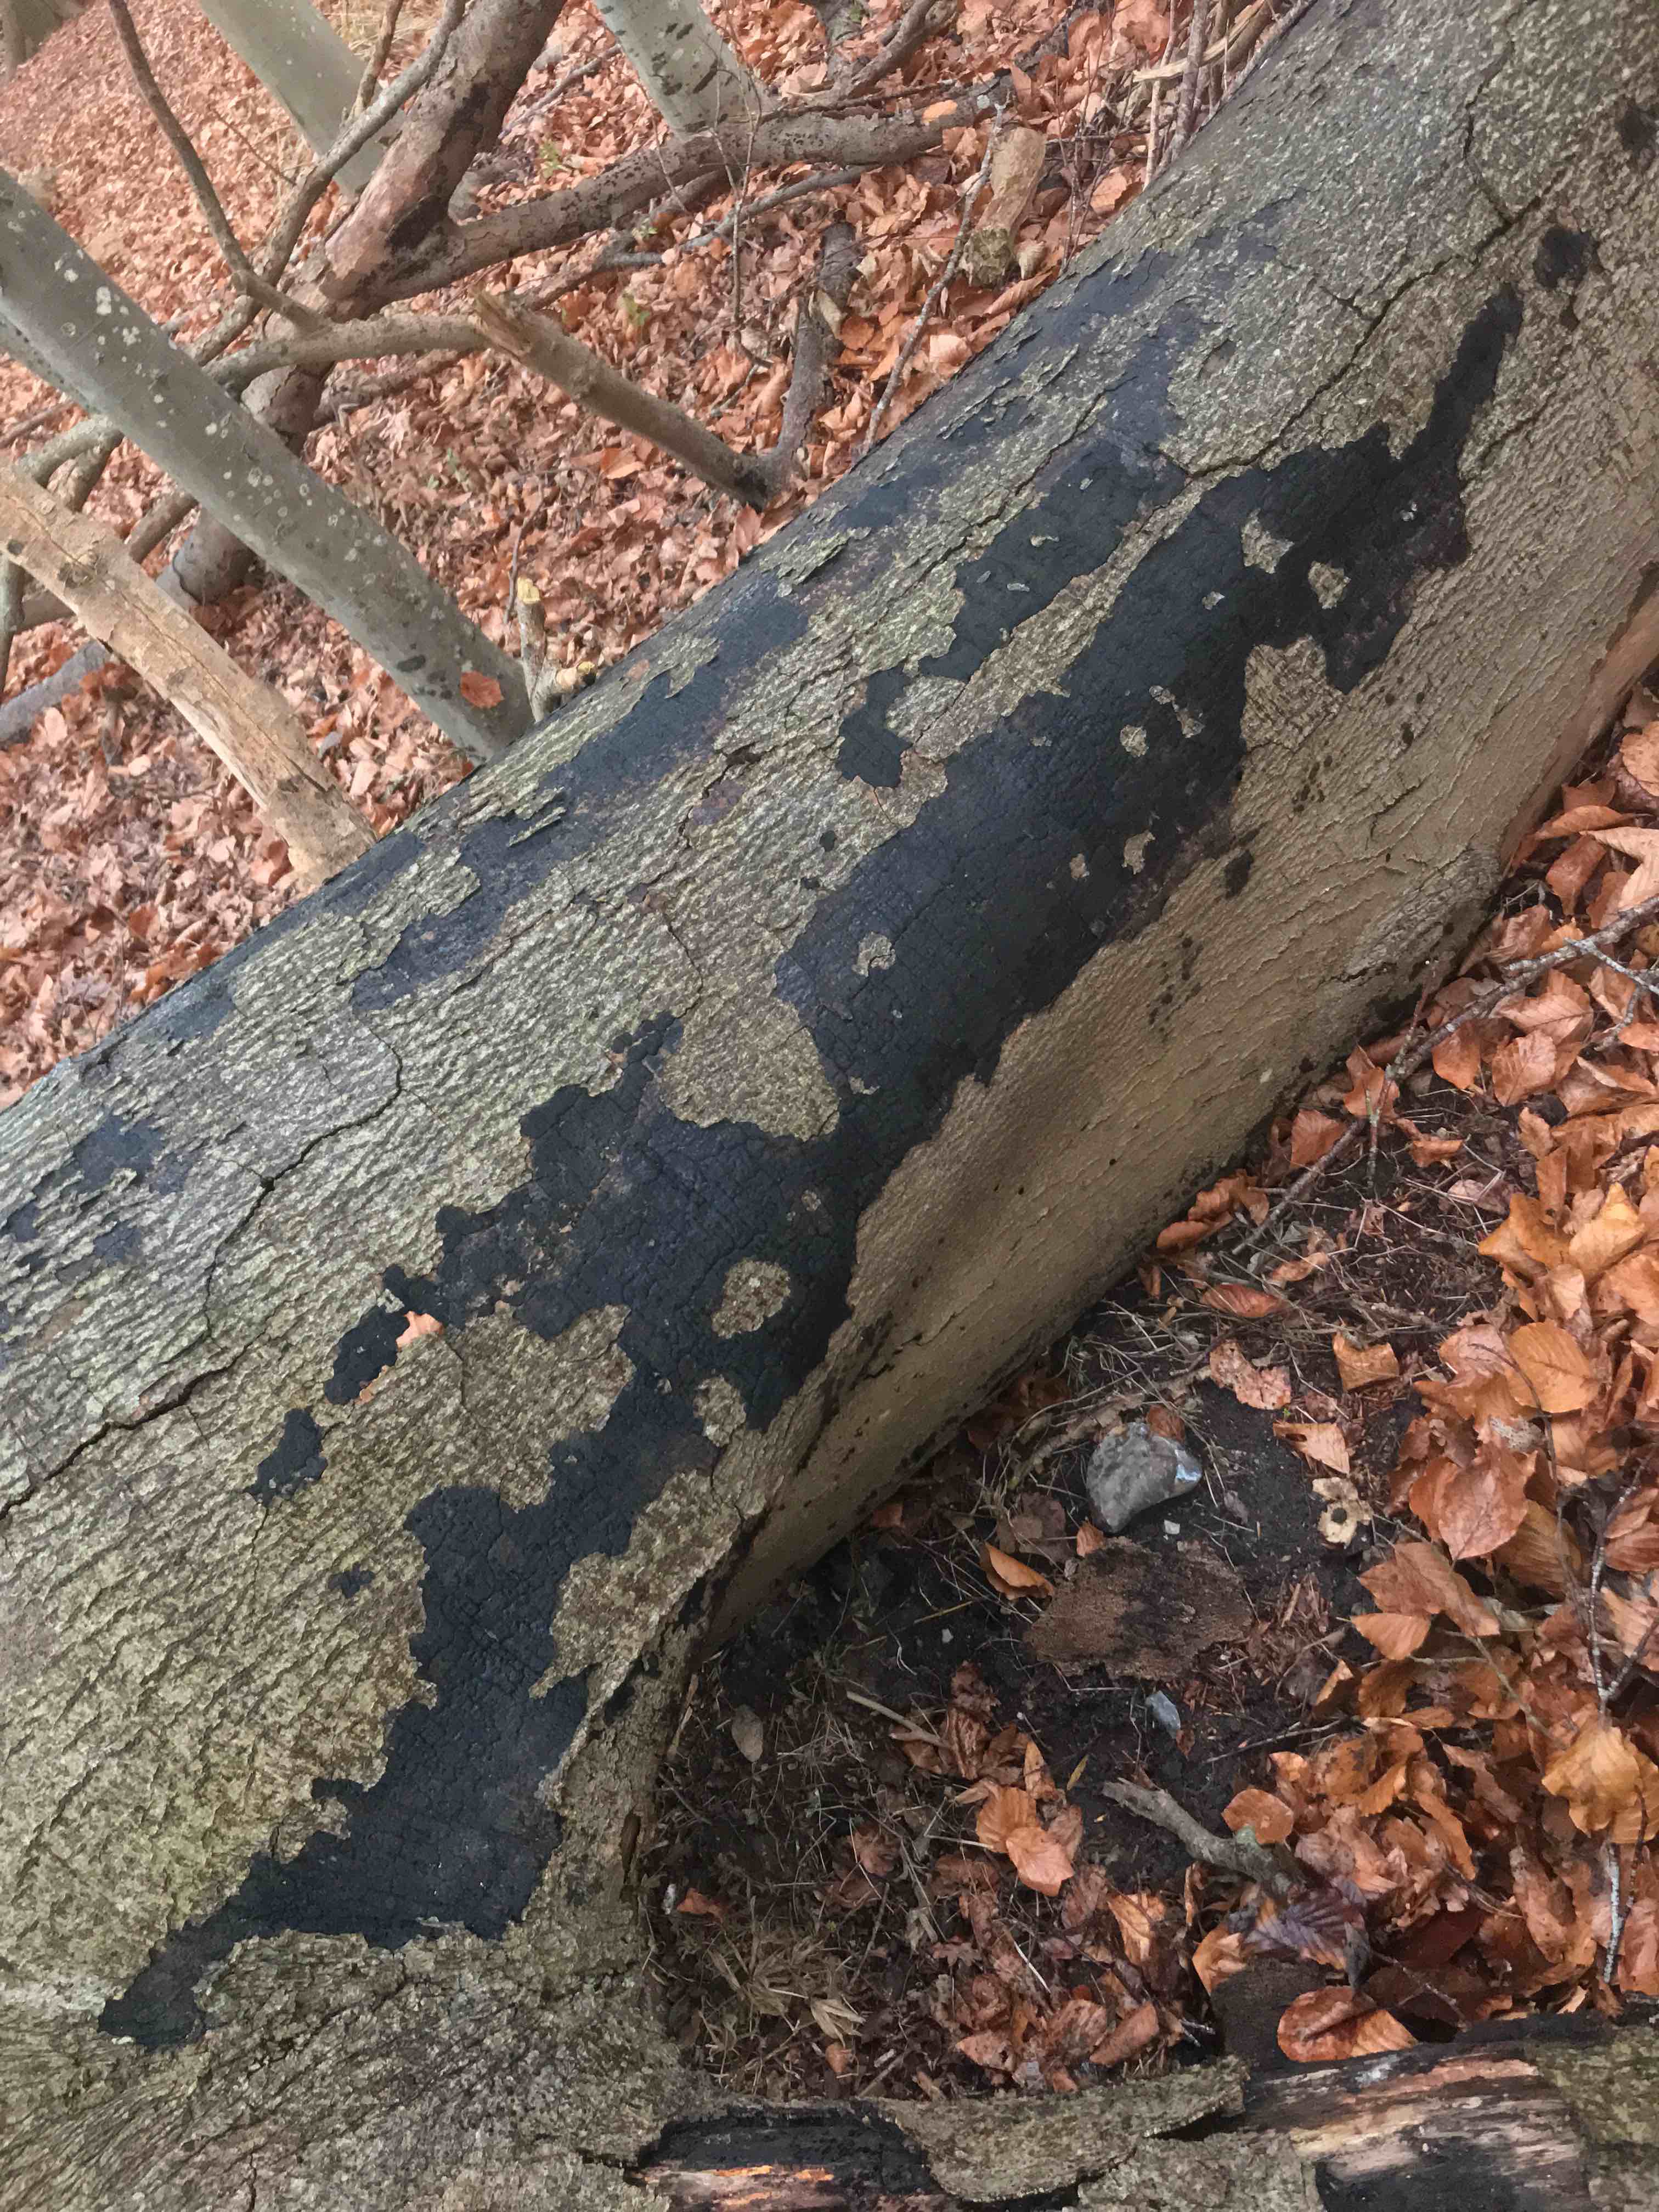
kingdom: Fungi
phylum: Ascomycota
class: Sordariomycetes
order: Xylariales
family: Diatrypaceae
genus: Eutypa
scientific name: Eutypa spinosa
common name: grov kulskorpe
